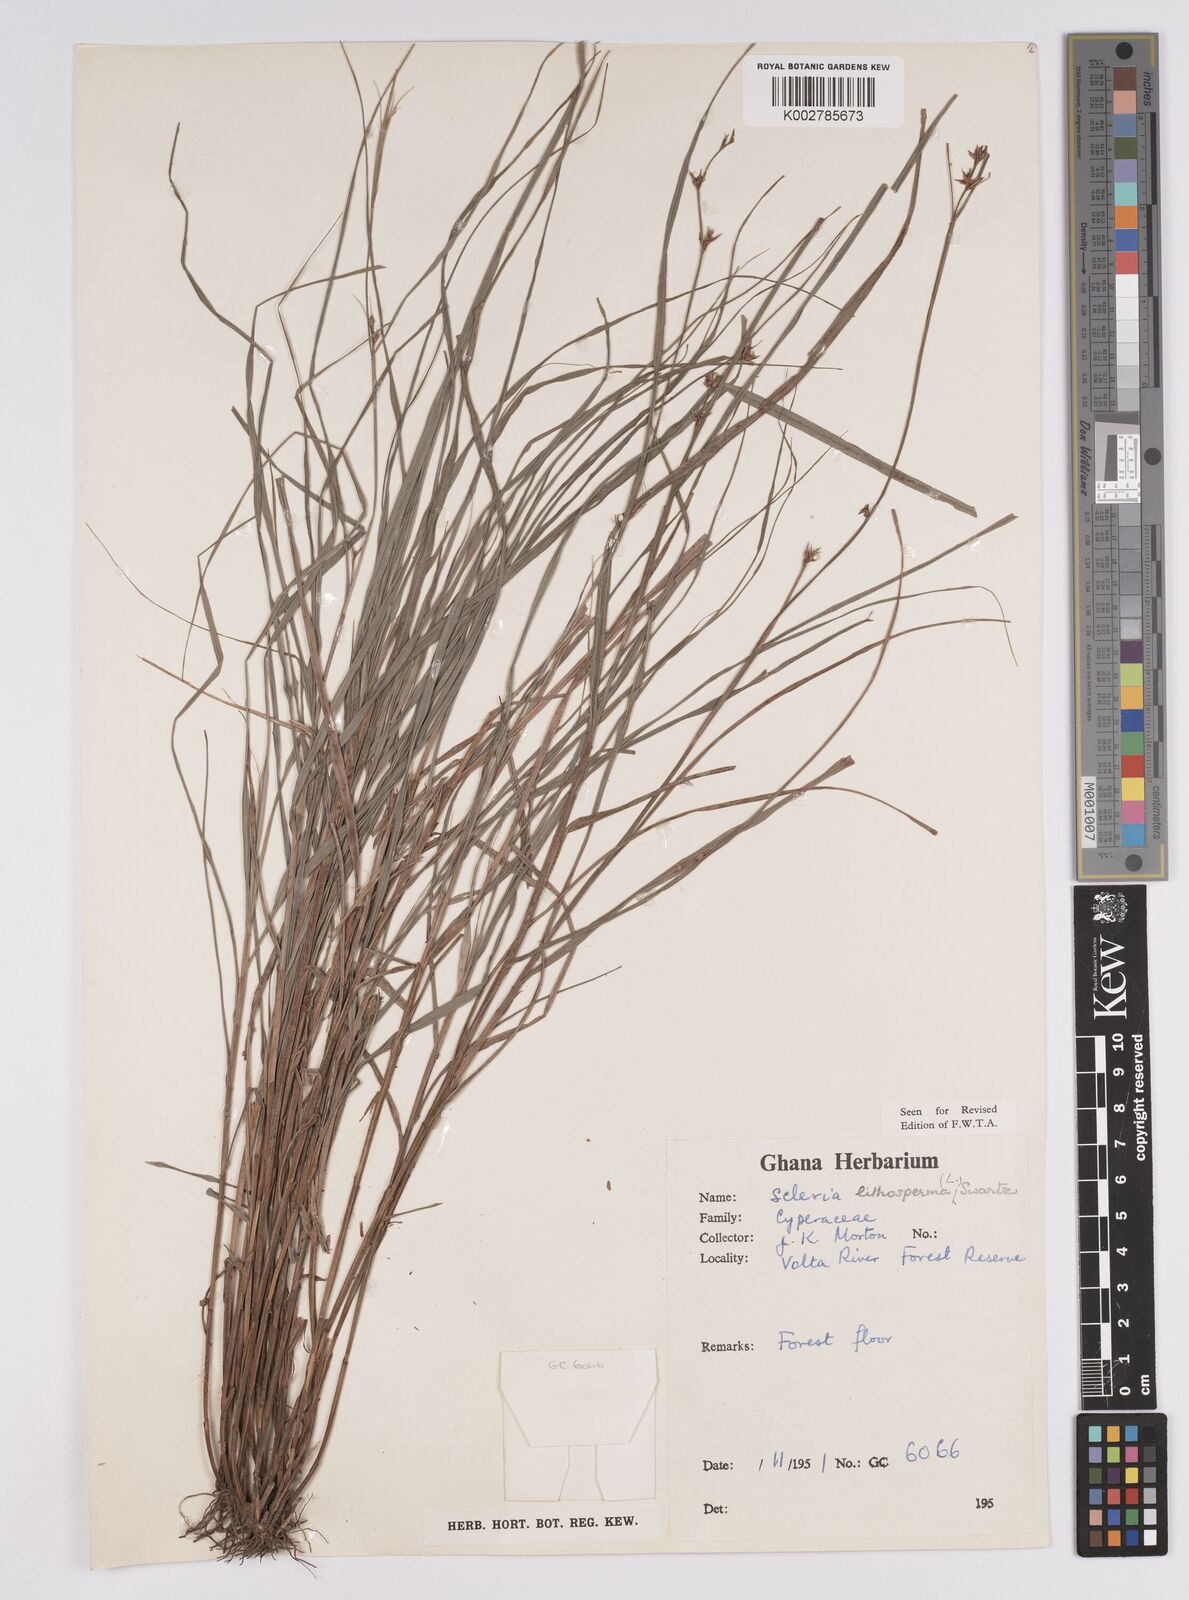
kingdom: Plantae
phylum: Tracheophyta
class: Liliopsida
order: Poales
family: Cyperaceae
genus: Scleria
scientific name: Scleria lithosperma
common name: Florida keys nut-rush
